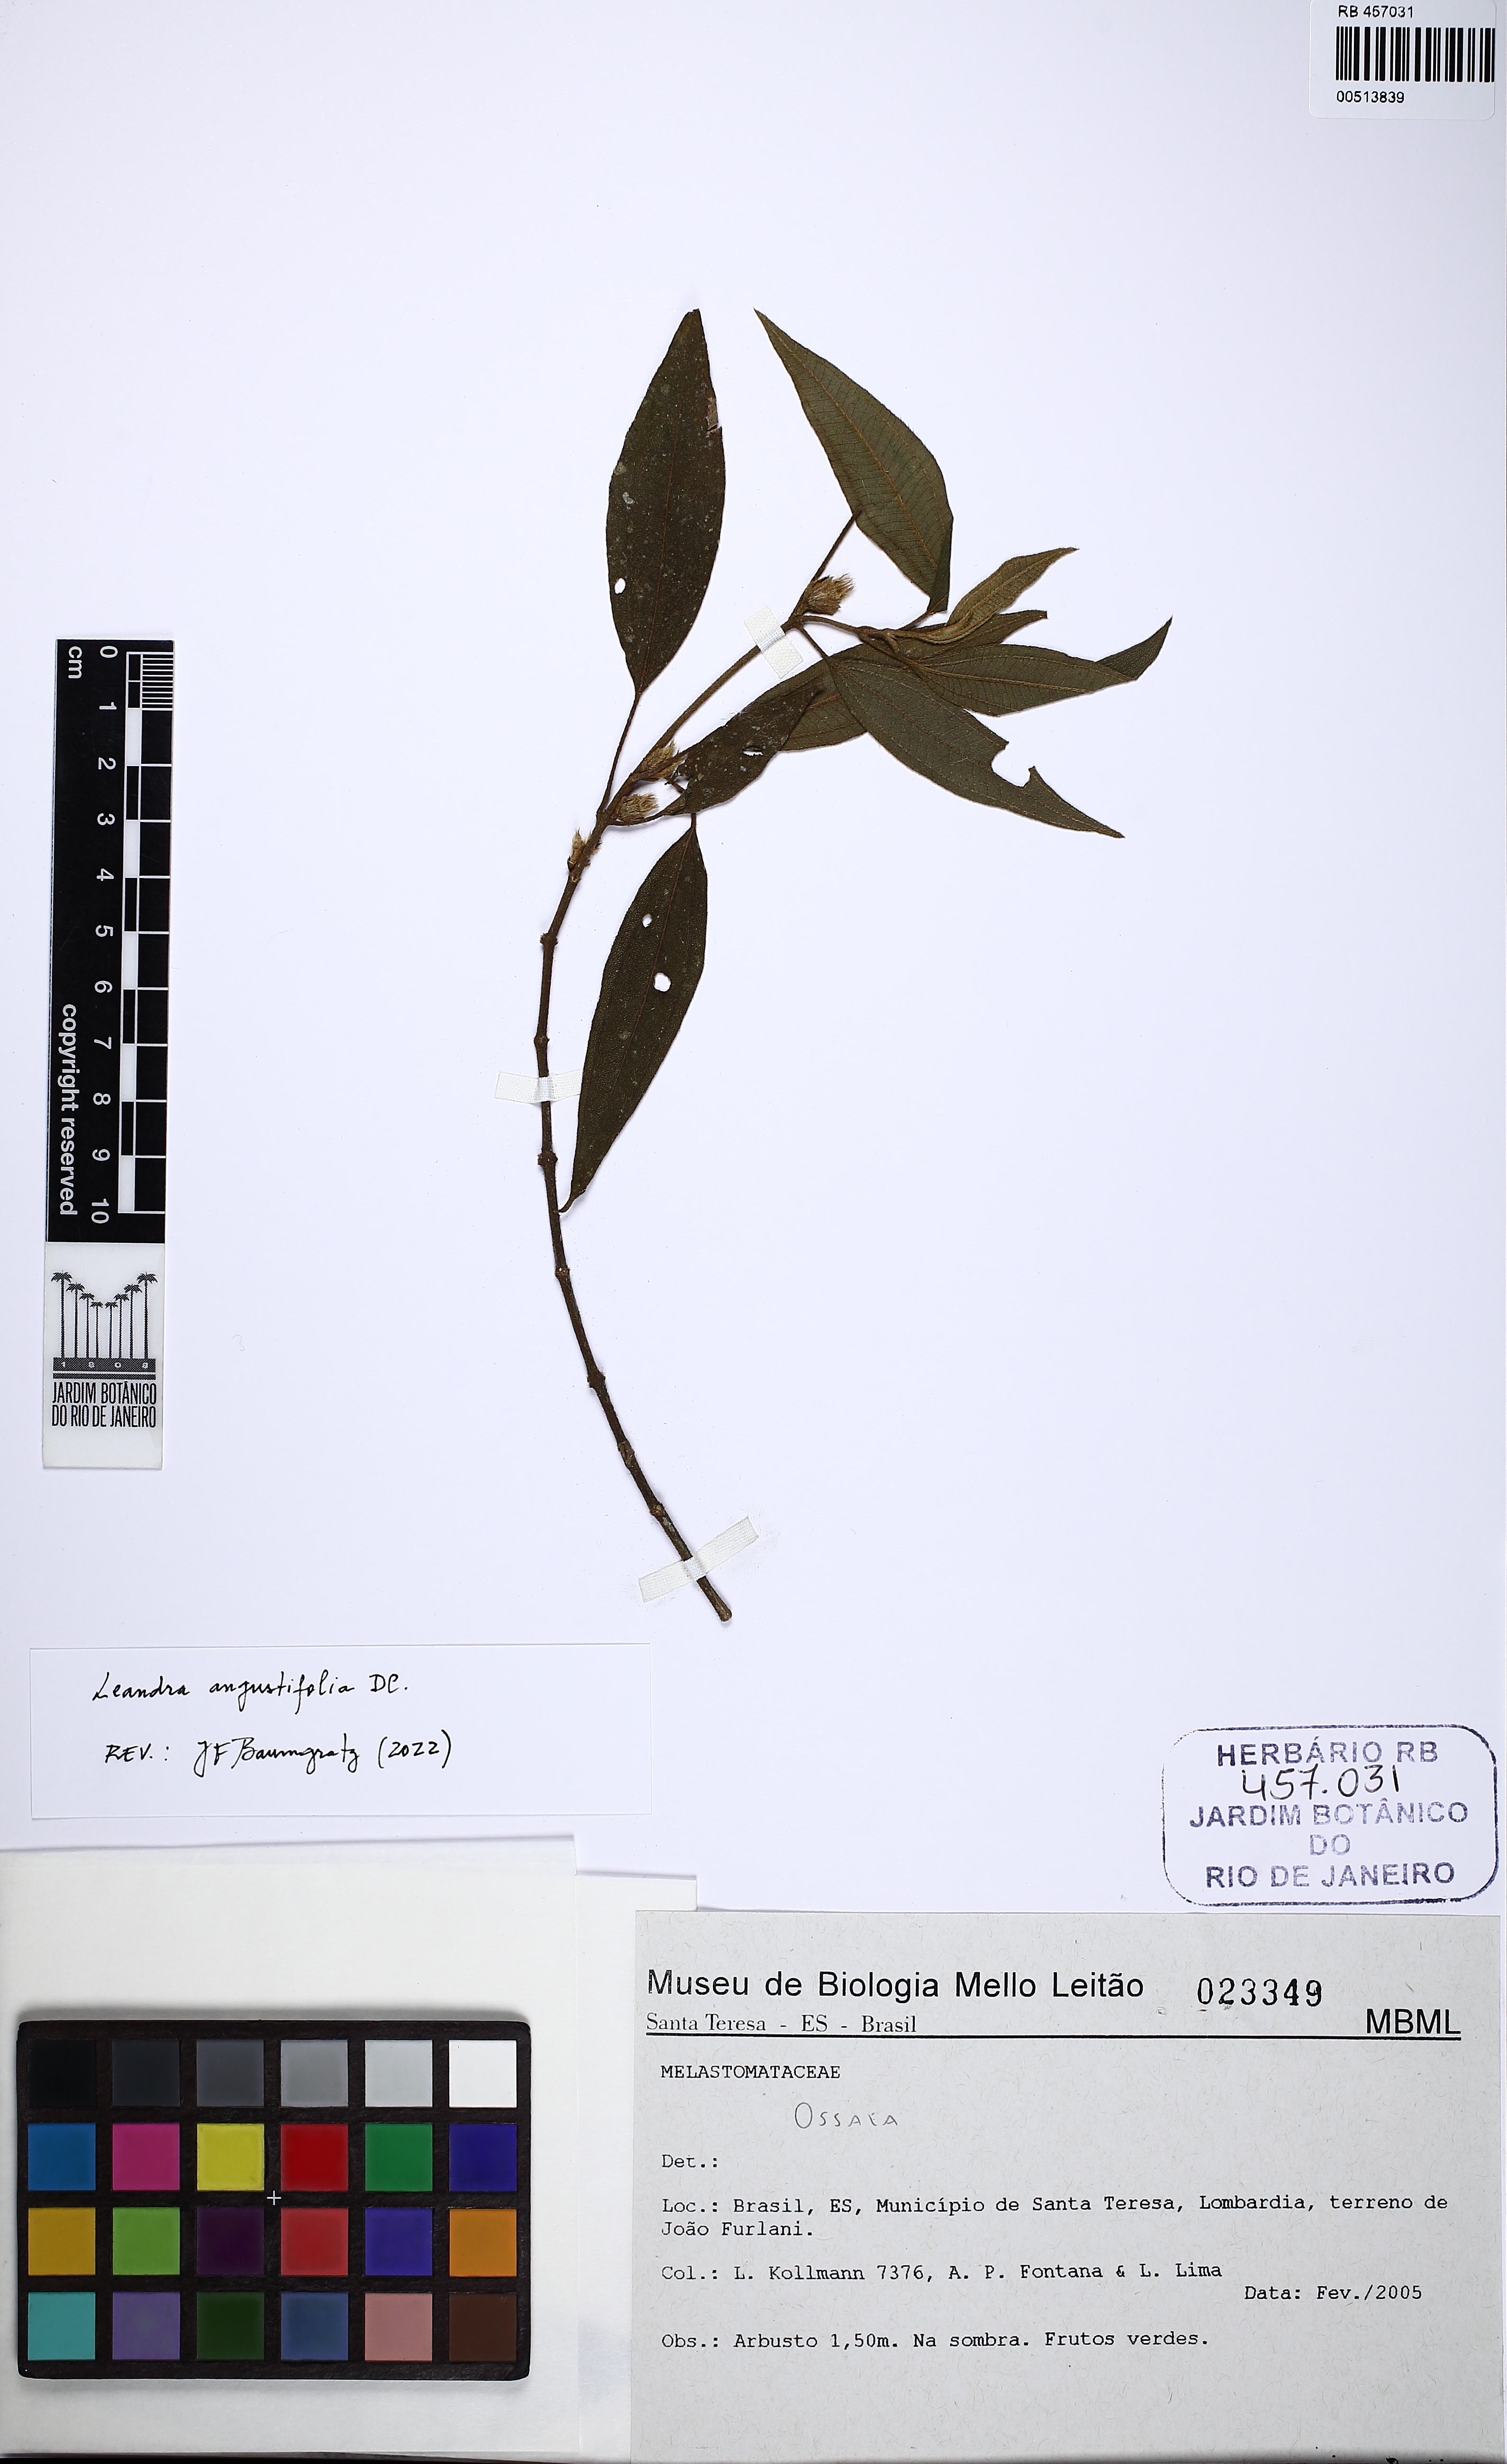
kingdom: Plantae
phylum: Tracheophyta
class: Magnoliopsida
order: Myrtales
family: Melastomataceae
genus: Miconia
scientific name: Miconia corcovadensis
